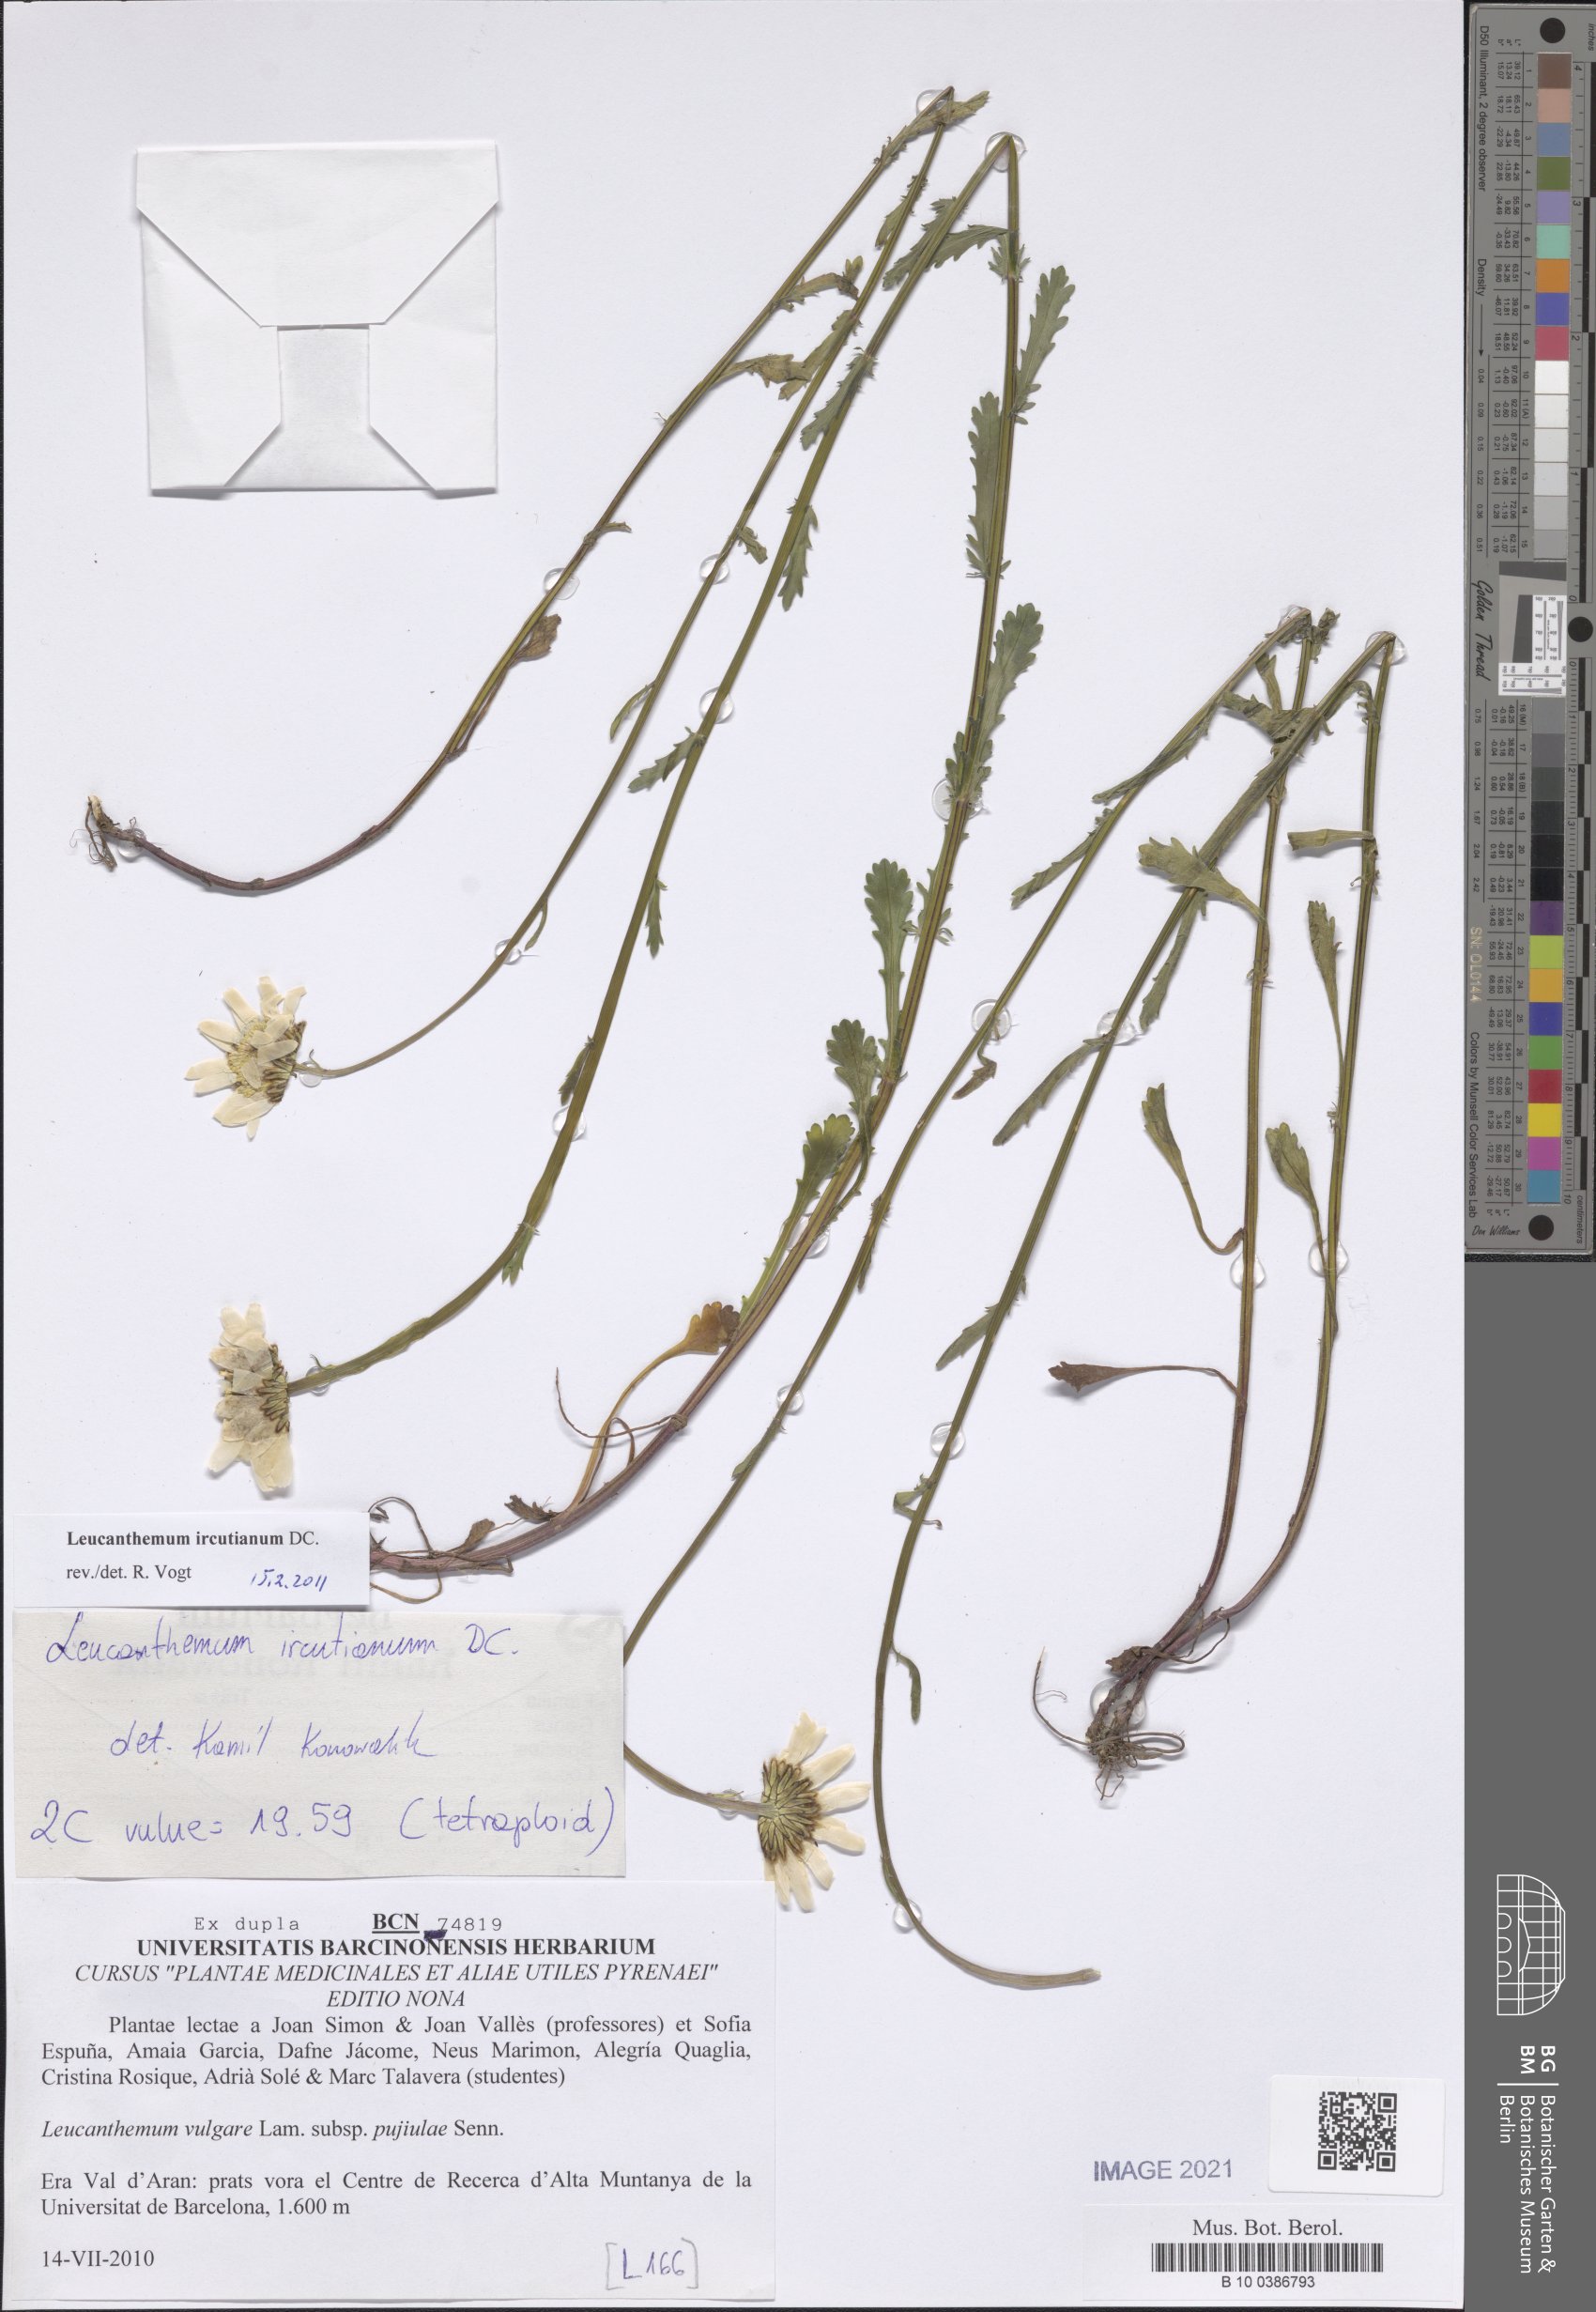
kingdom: Plantae
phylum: Tracheophyta
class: Magnoliopsida
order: Asterales
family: Asteraceae
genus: Leucanthemum
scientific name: Leucanthemum ircutianum
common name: Daisy
